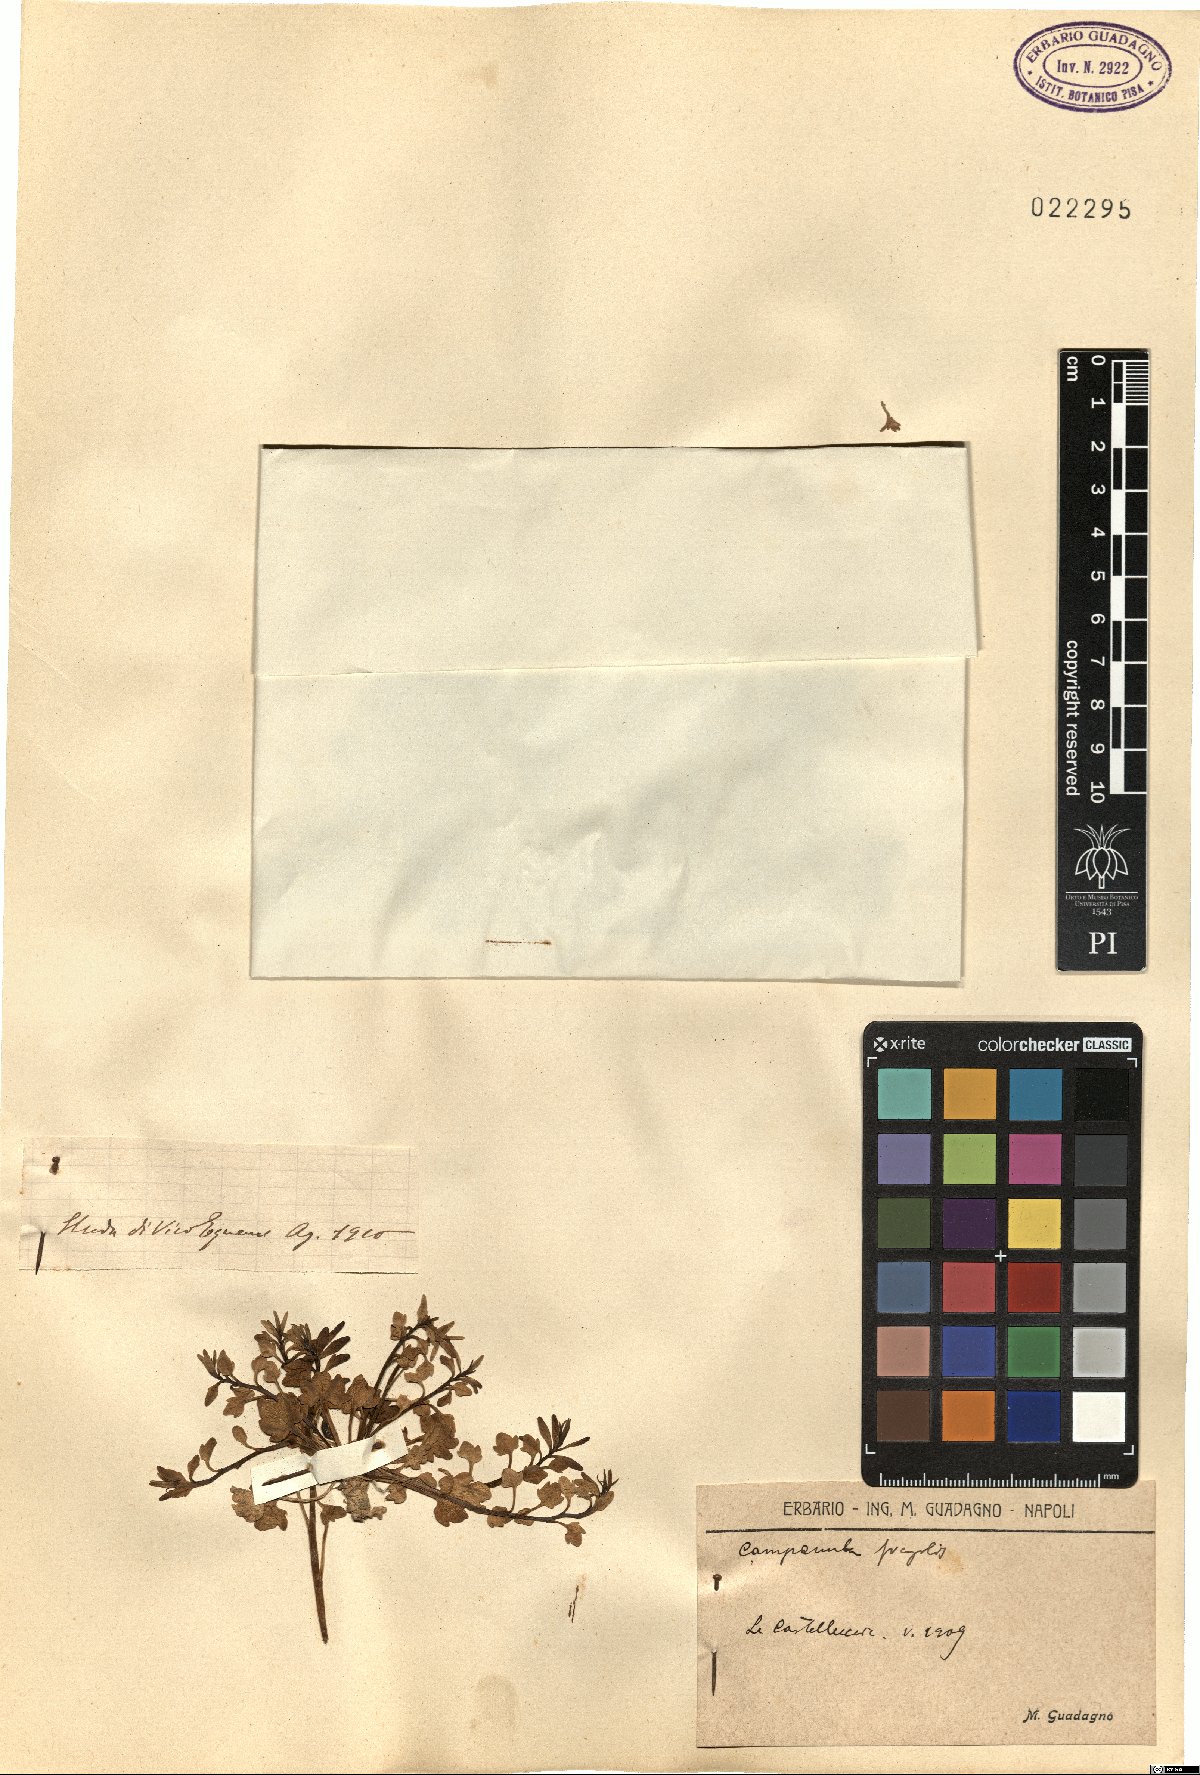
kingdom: Plantae
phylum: Tracheophyta
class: Magnoliopsida
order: Asterales
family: Campanulaceae
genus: Campanula
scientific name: Campanula fragilis
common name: Italian bellflower
